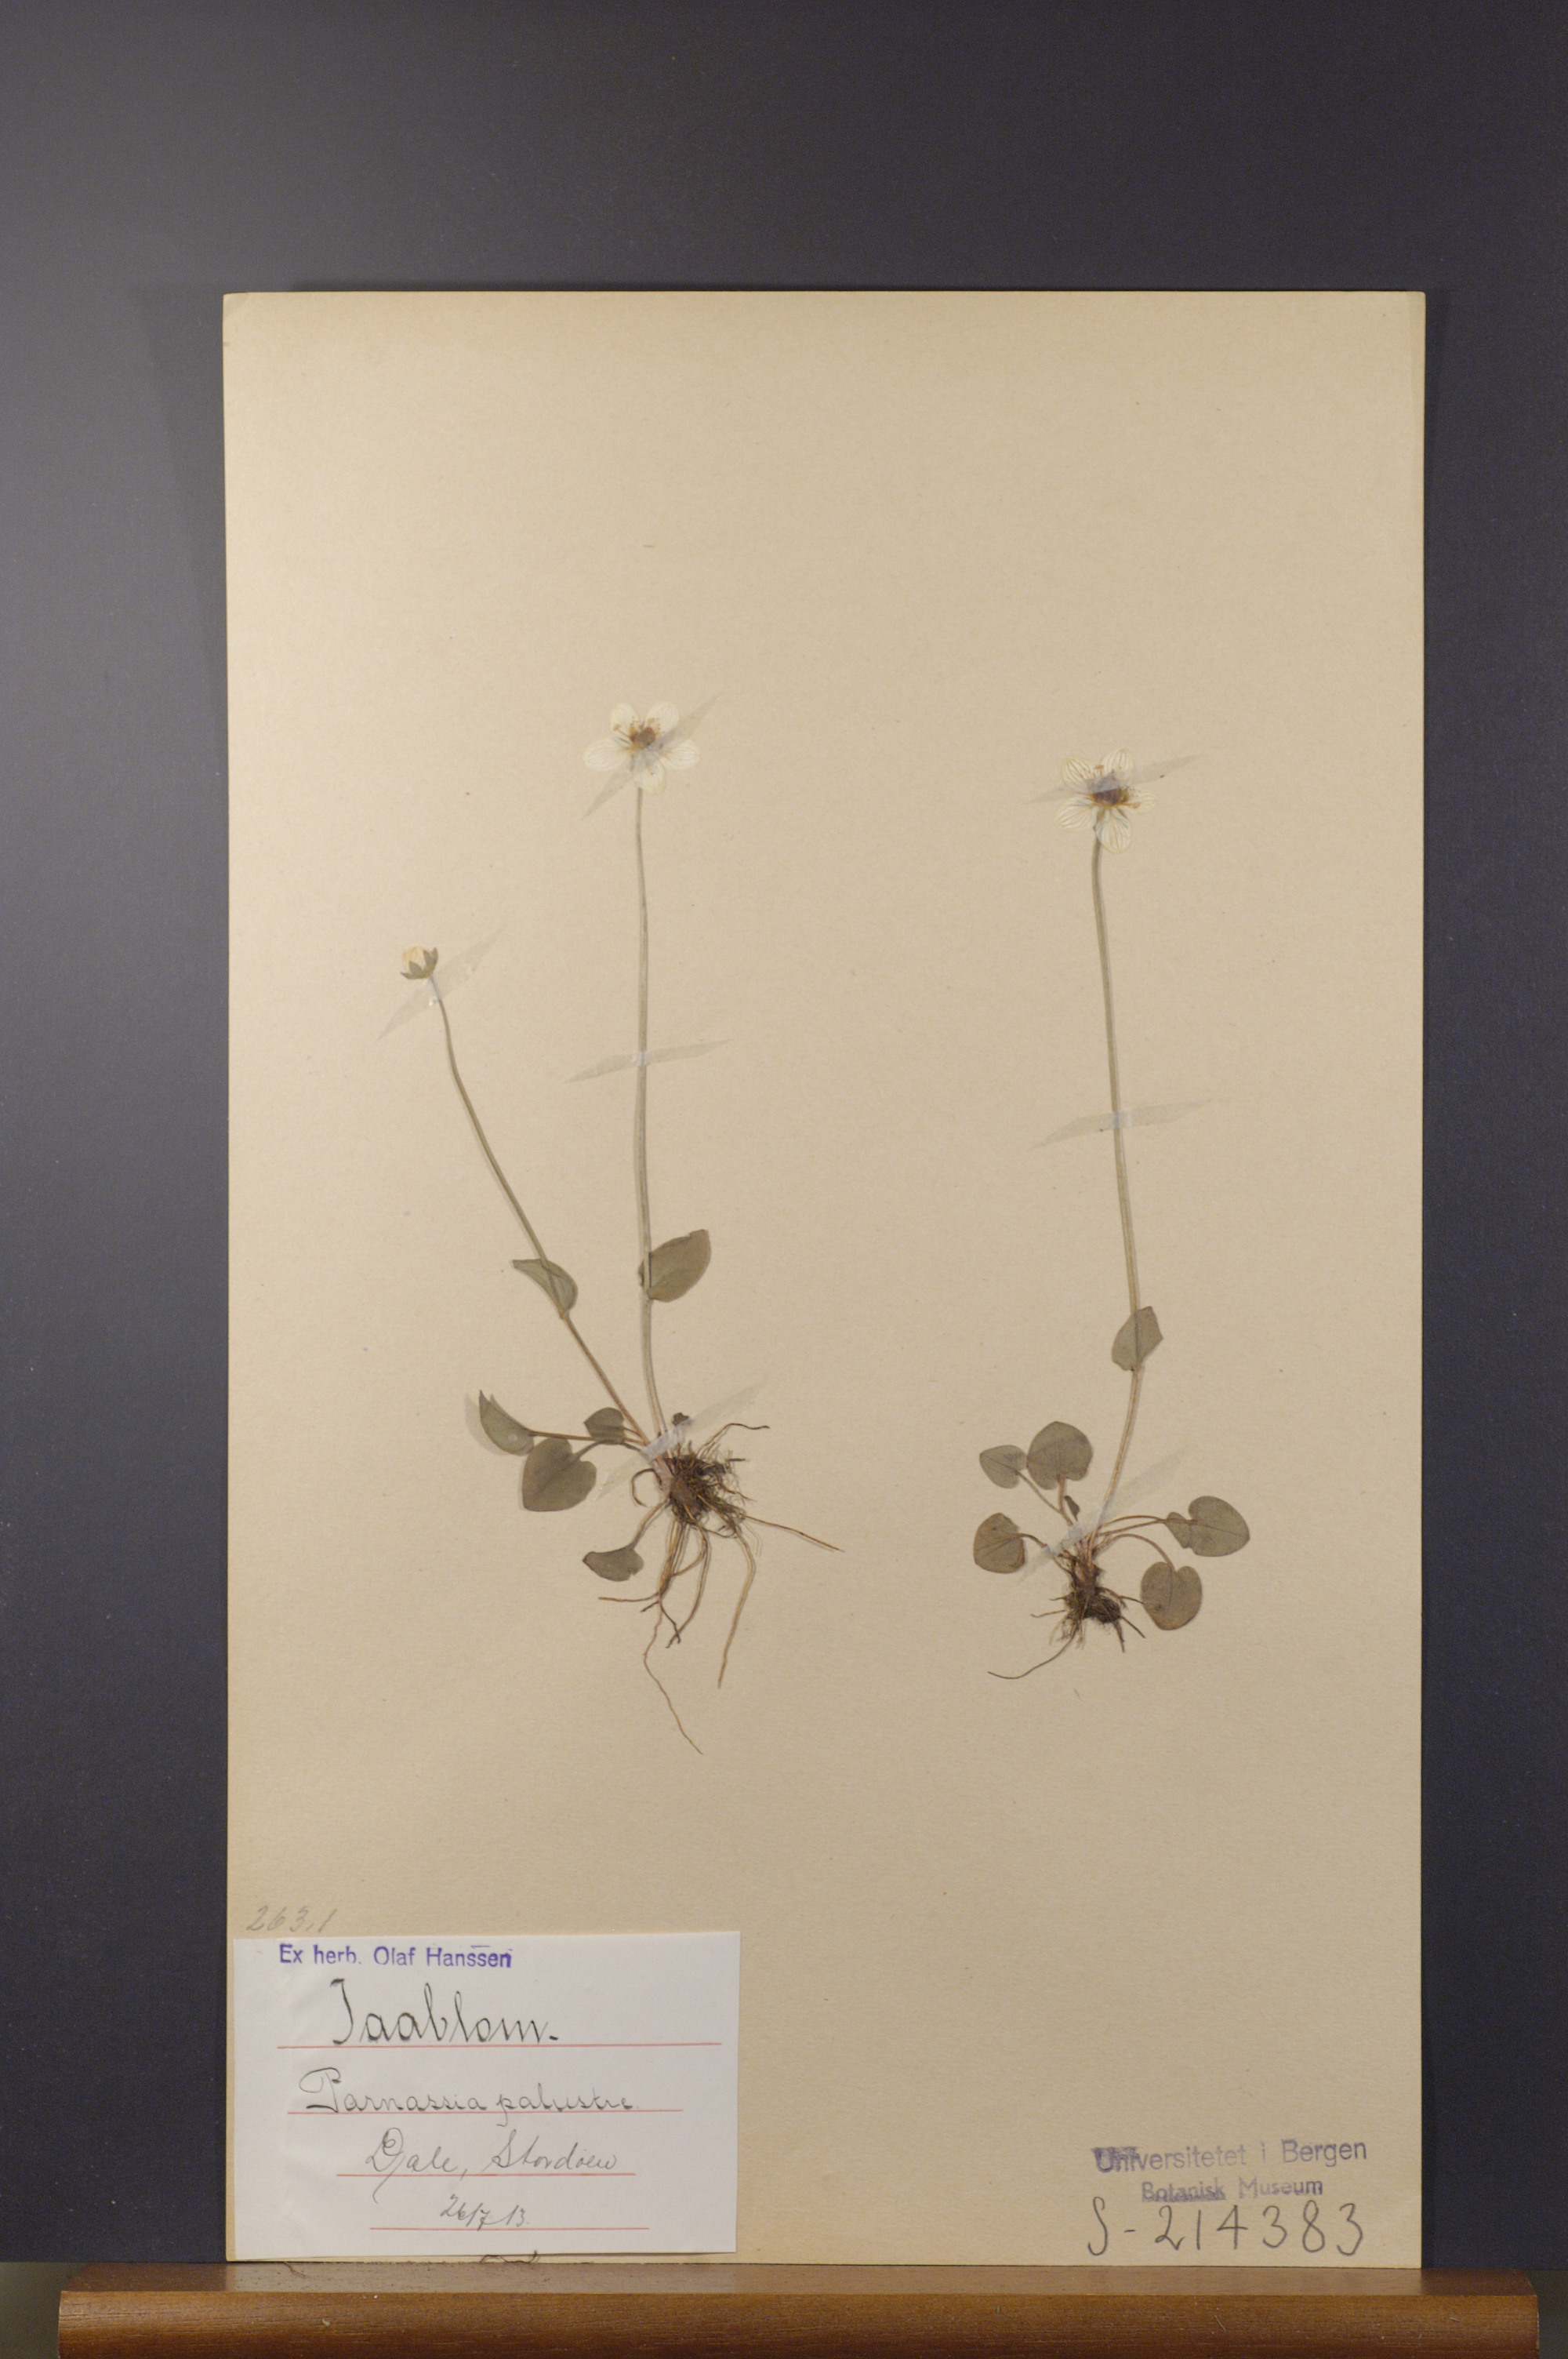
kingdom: Plantae
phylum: Tracheophyta
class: Magnoliopsida
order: Celastrales
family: Parnassiaceae
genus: Parnassia
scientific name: Parnassia palustris
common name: Grass-of-parnassus
